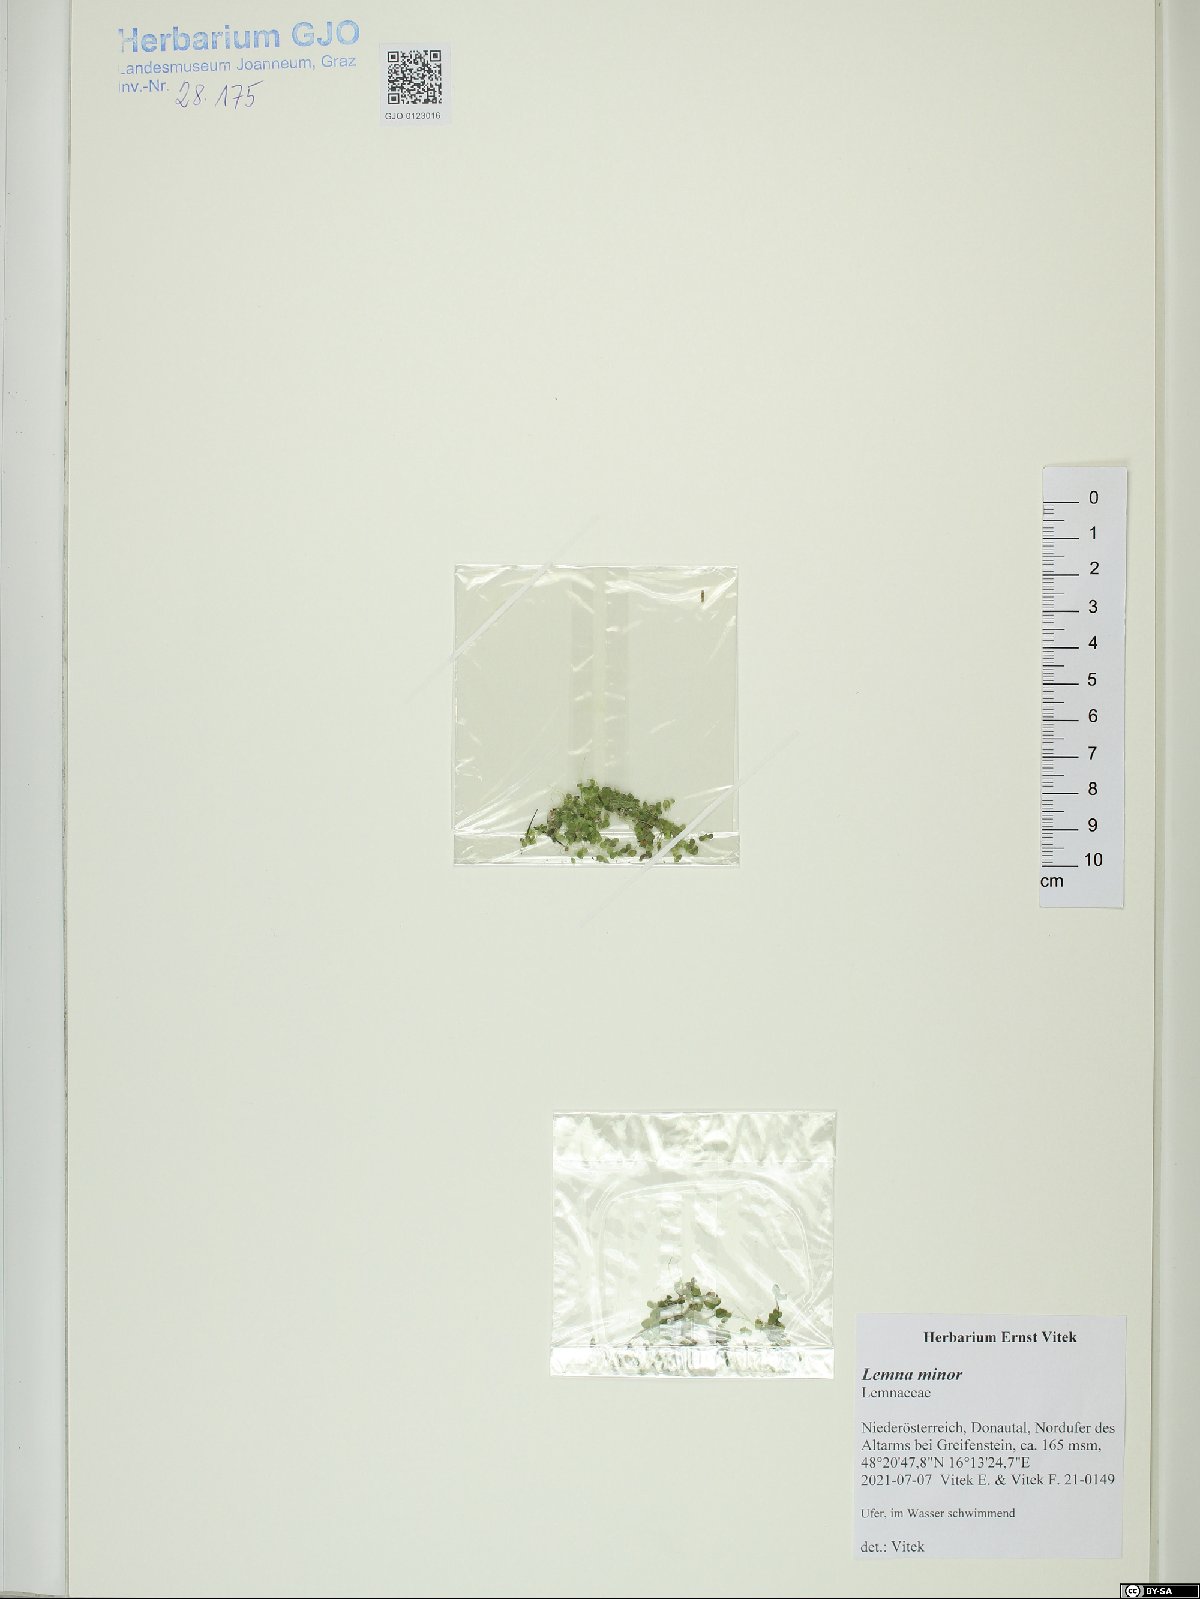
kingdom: Plantae
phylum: Tracheophyta
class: Liliopsida
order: Alismatales
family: Araceae
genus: Lemna
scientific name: Lemna minor
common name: Common duckweed
